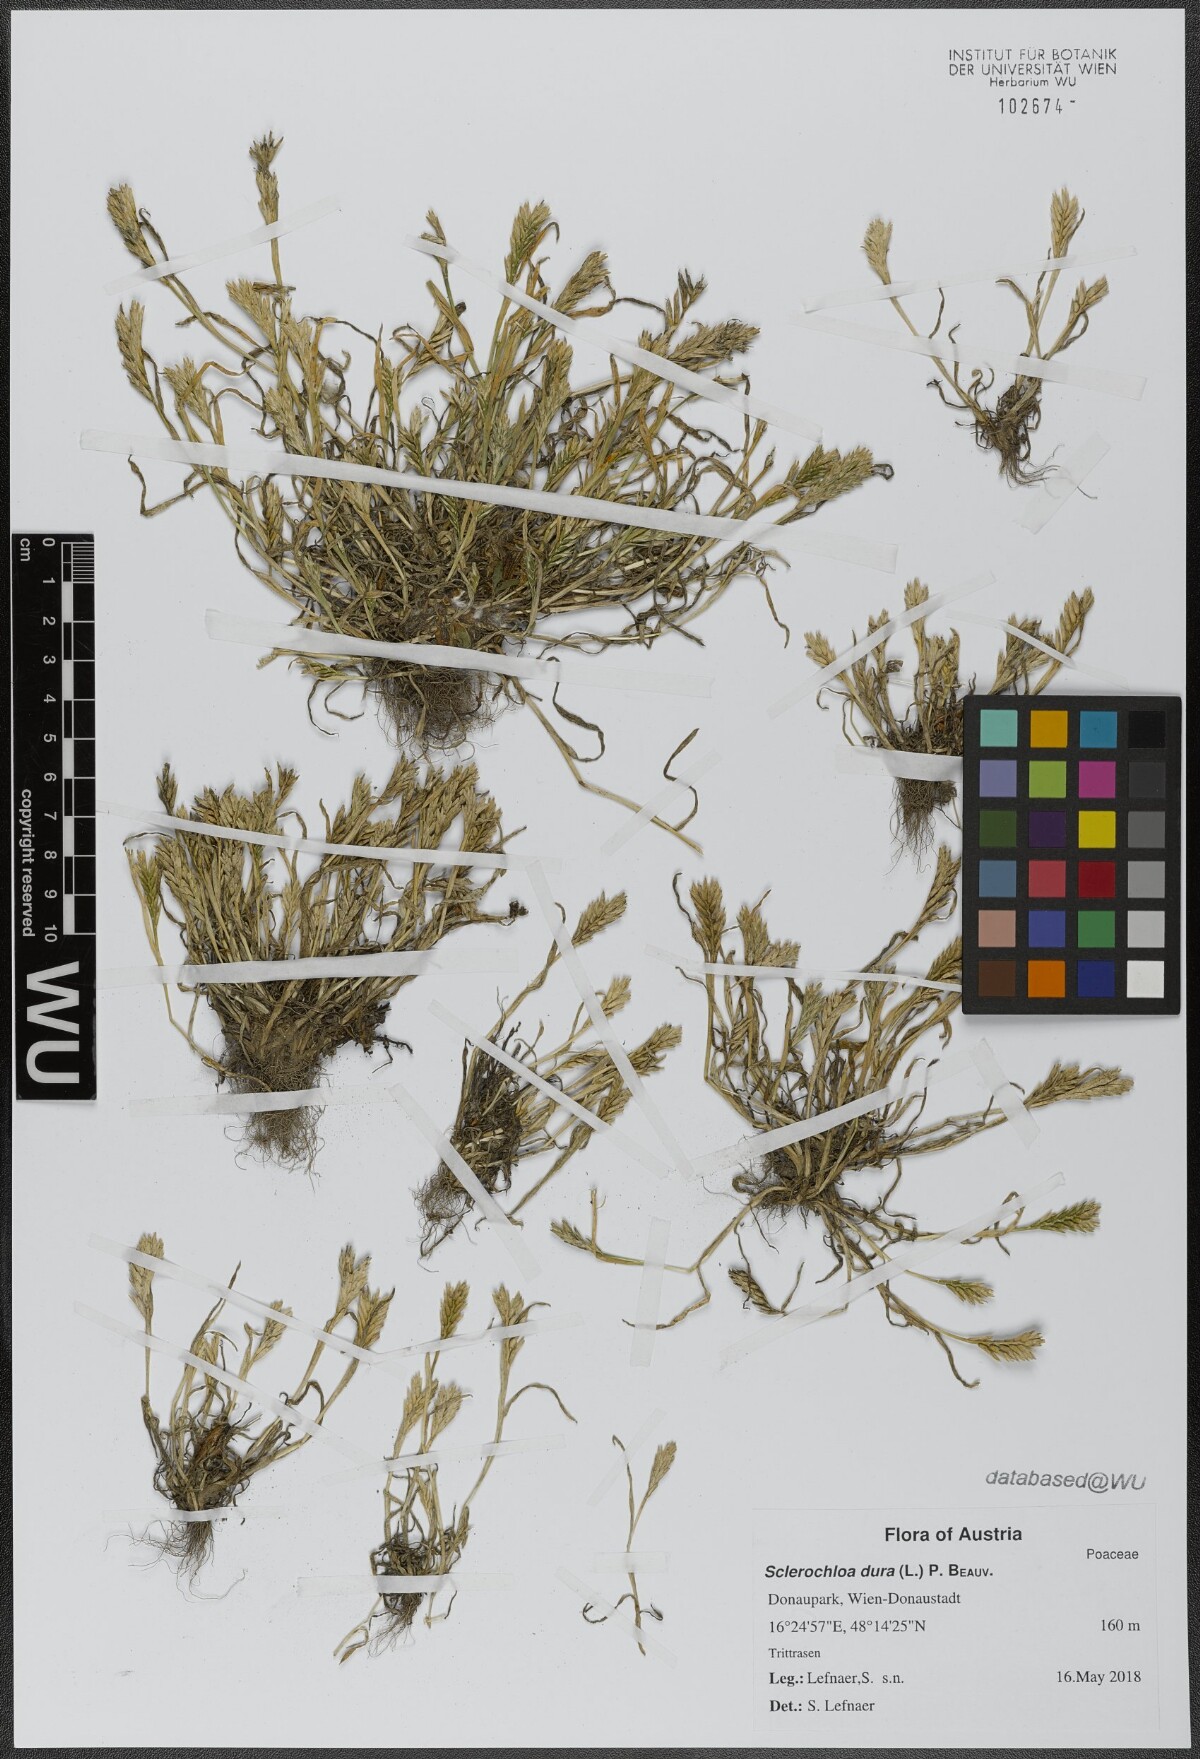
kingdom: Plantae
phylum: Tracheophyta
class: Liliopsida
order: Poales
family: Poaceae
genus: Sclerochloa
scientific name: Sclerochloa dura
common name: Common hardgrass
